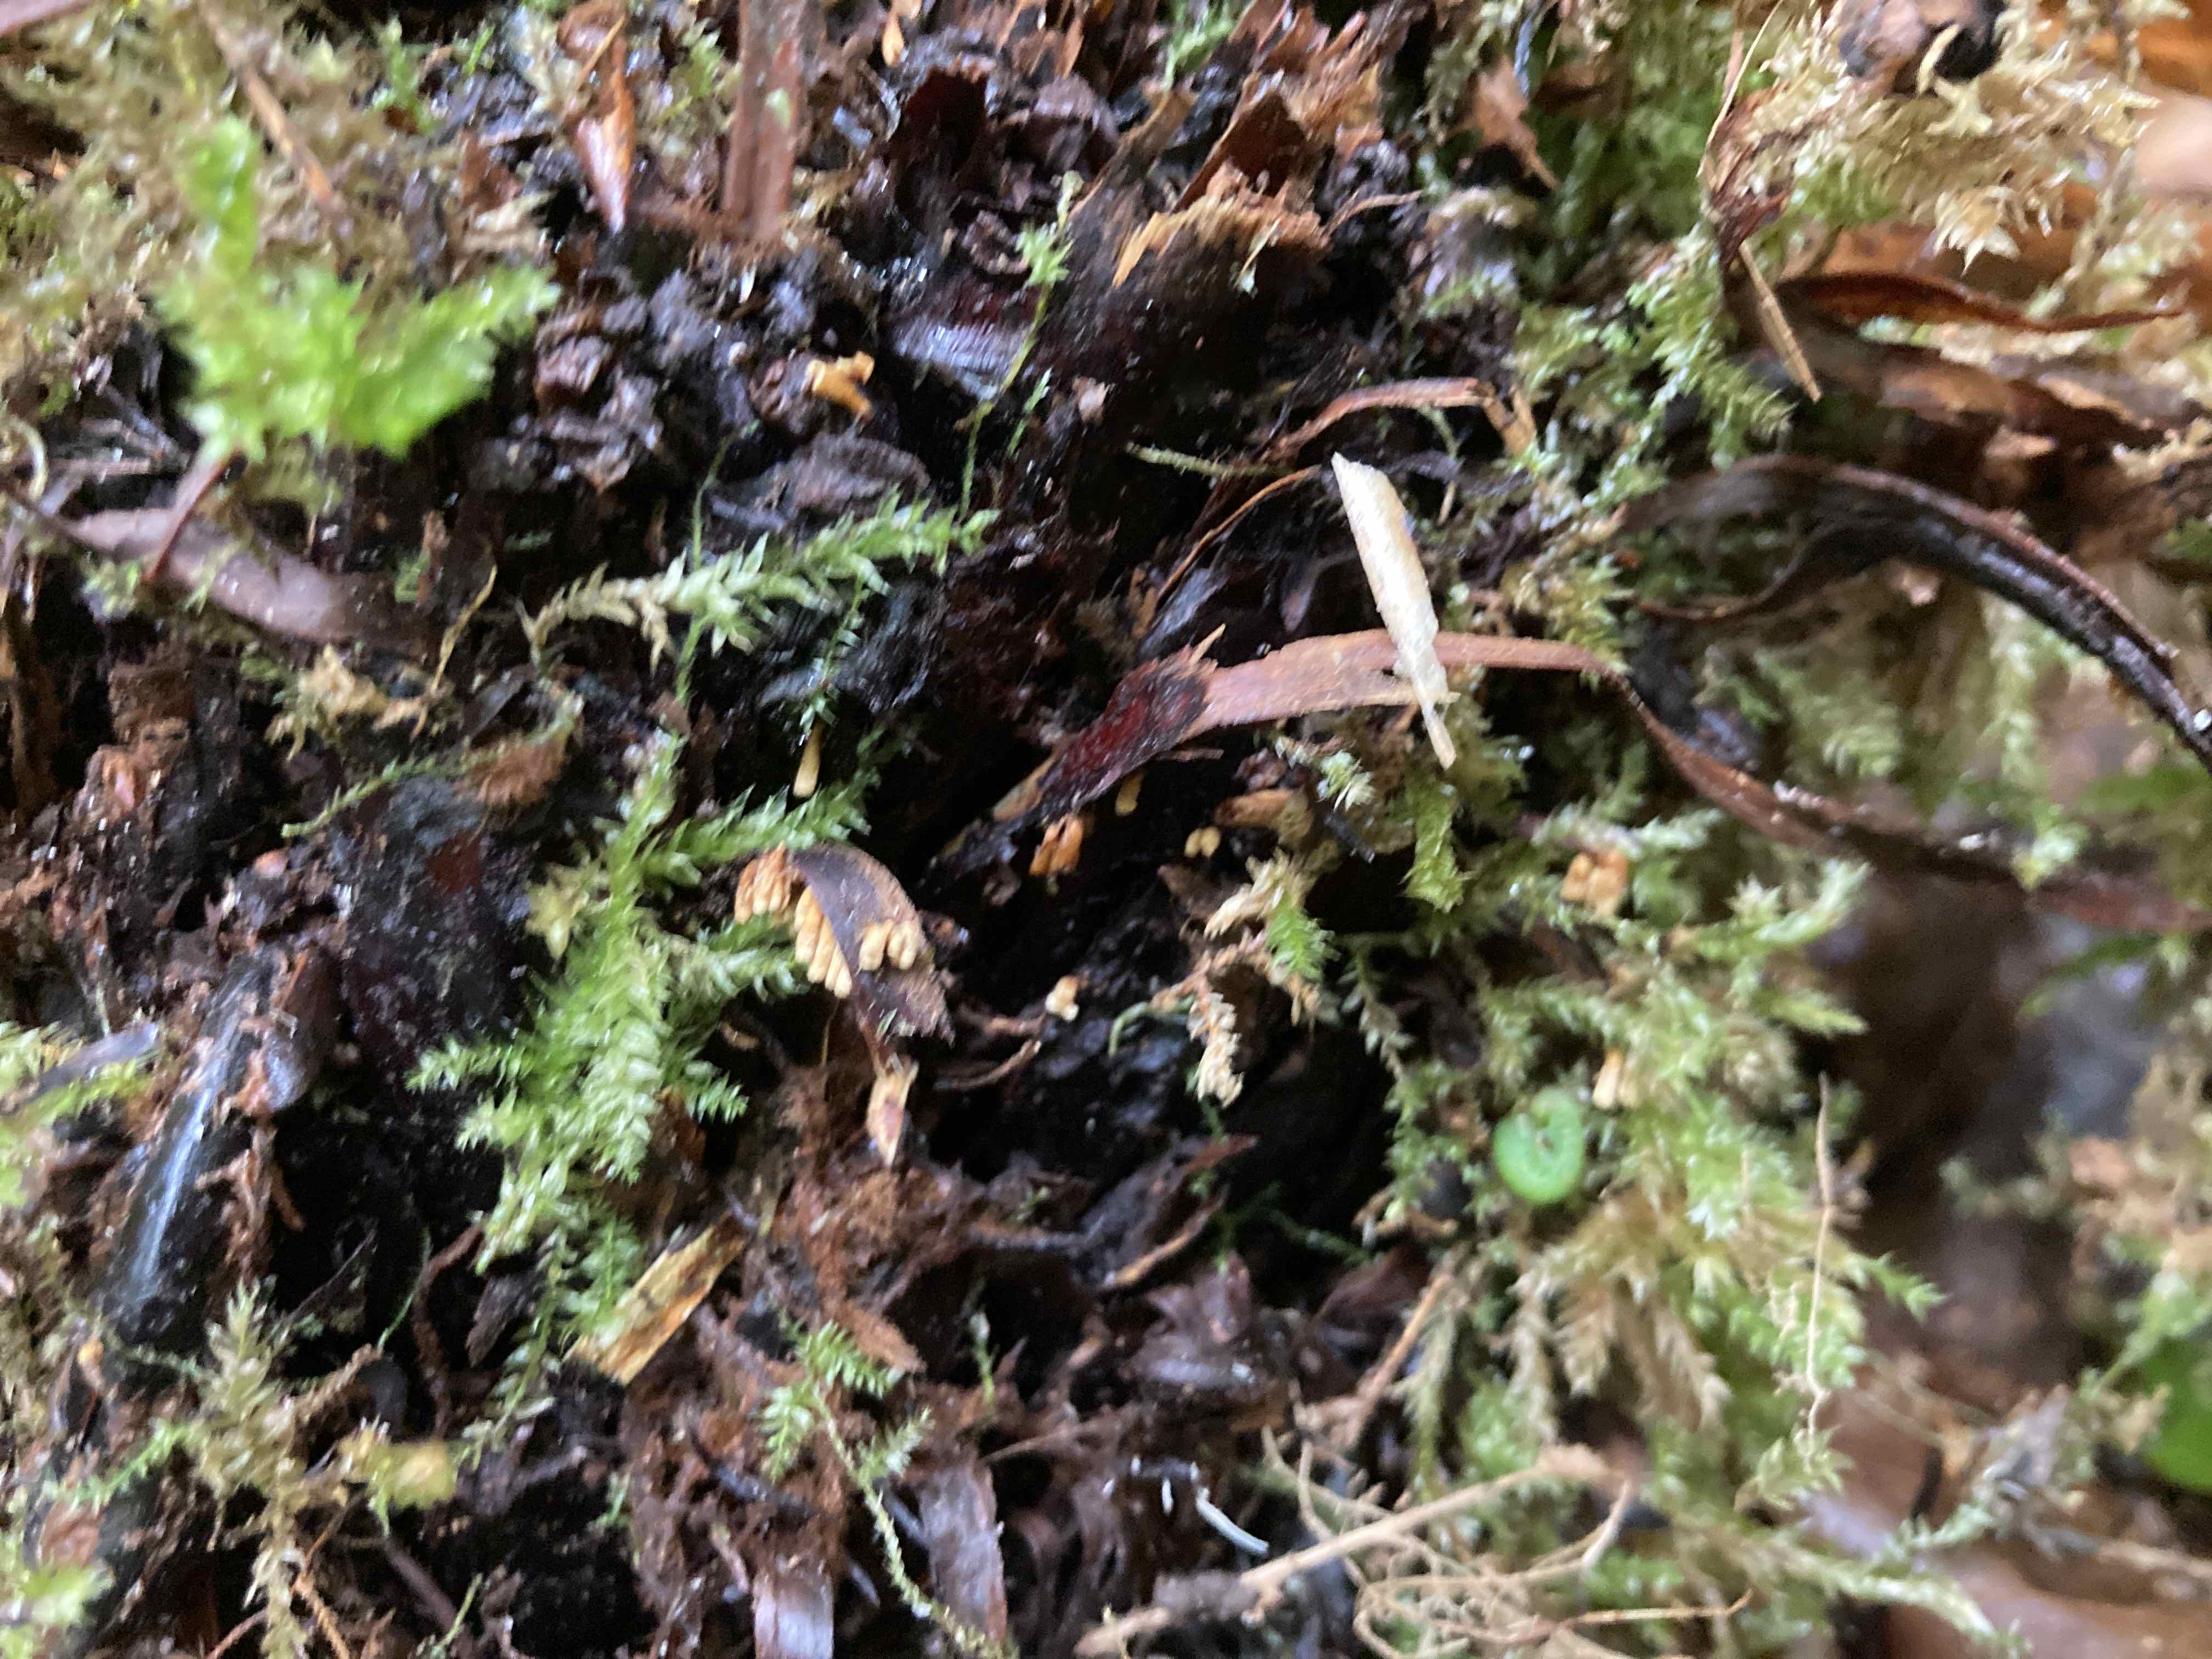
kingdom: Fungi
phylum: Basidiomycota
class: Agaricomycetes
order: Agaricales
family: Niaceae
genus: Woldmaria
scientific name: Woldmaria filicina
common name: bregnerør
